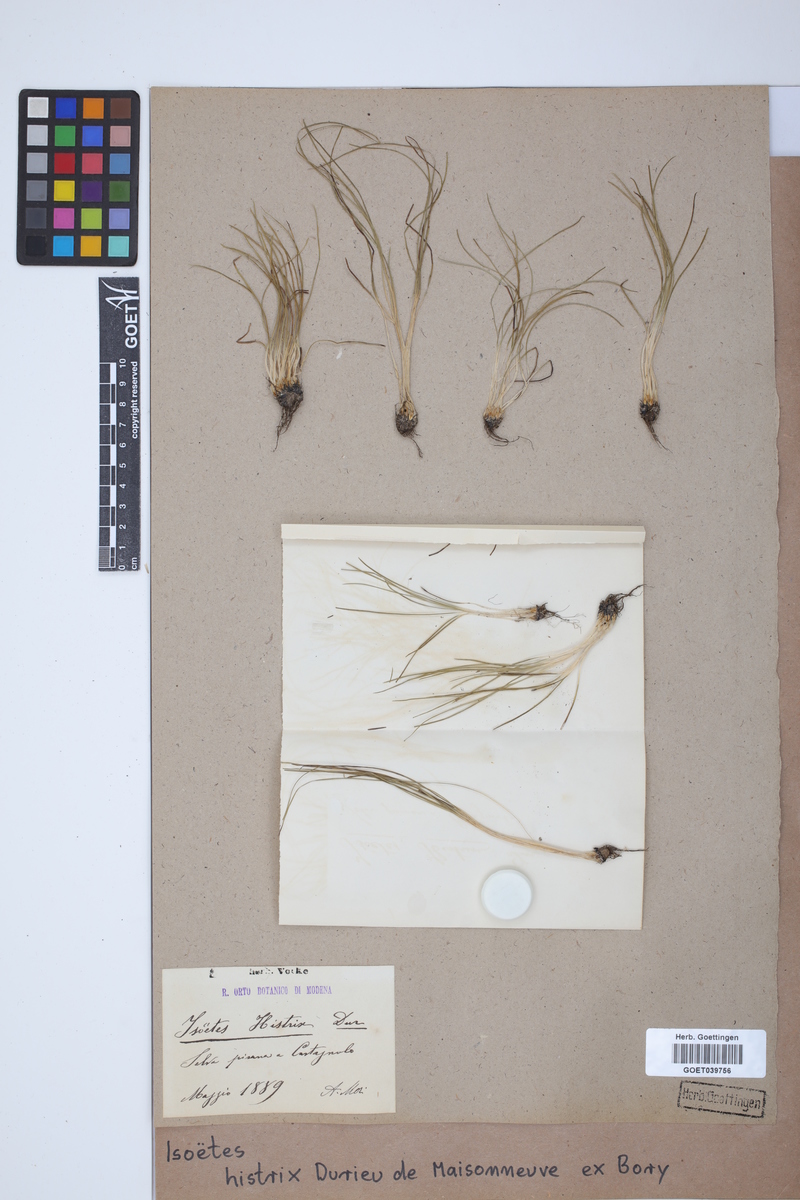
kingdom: Plantae
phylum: Tracheophyta
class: Lycopodiopsida
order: Isoetales
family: Isoetaceae
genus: Isoetes
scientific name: Isoetes histrix
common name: Land quillwort
